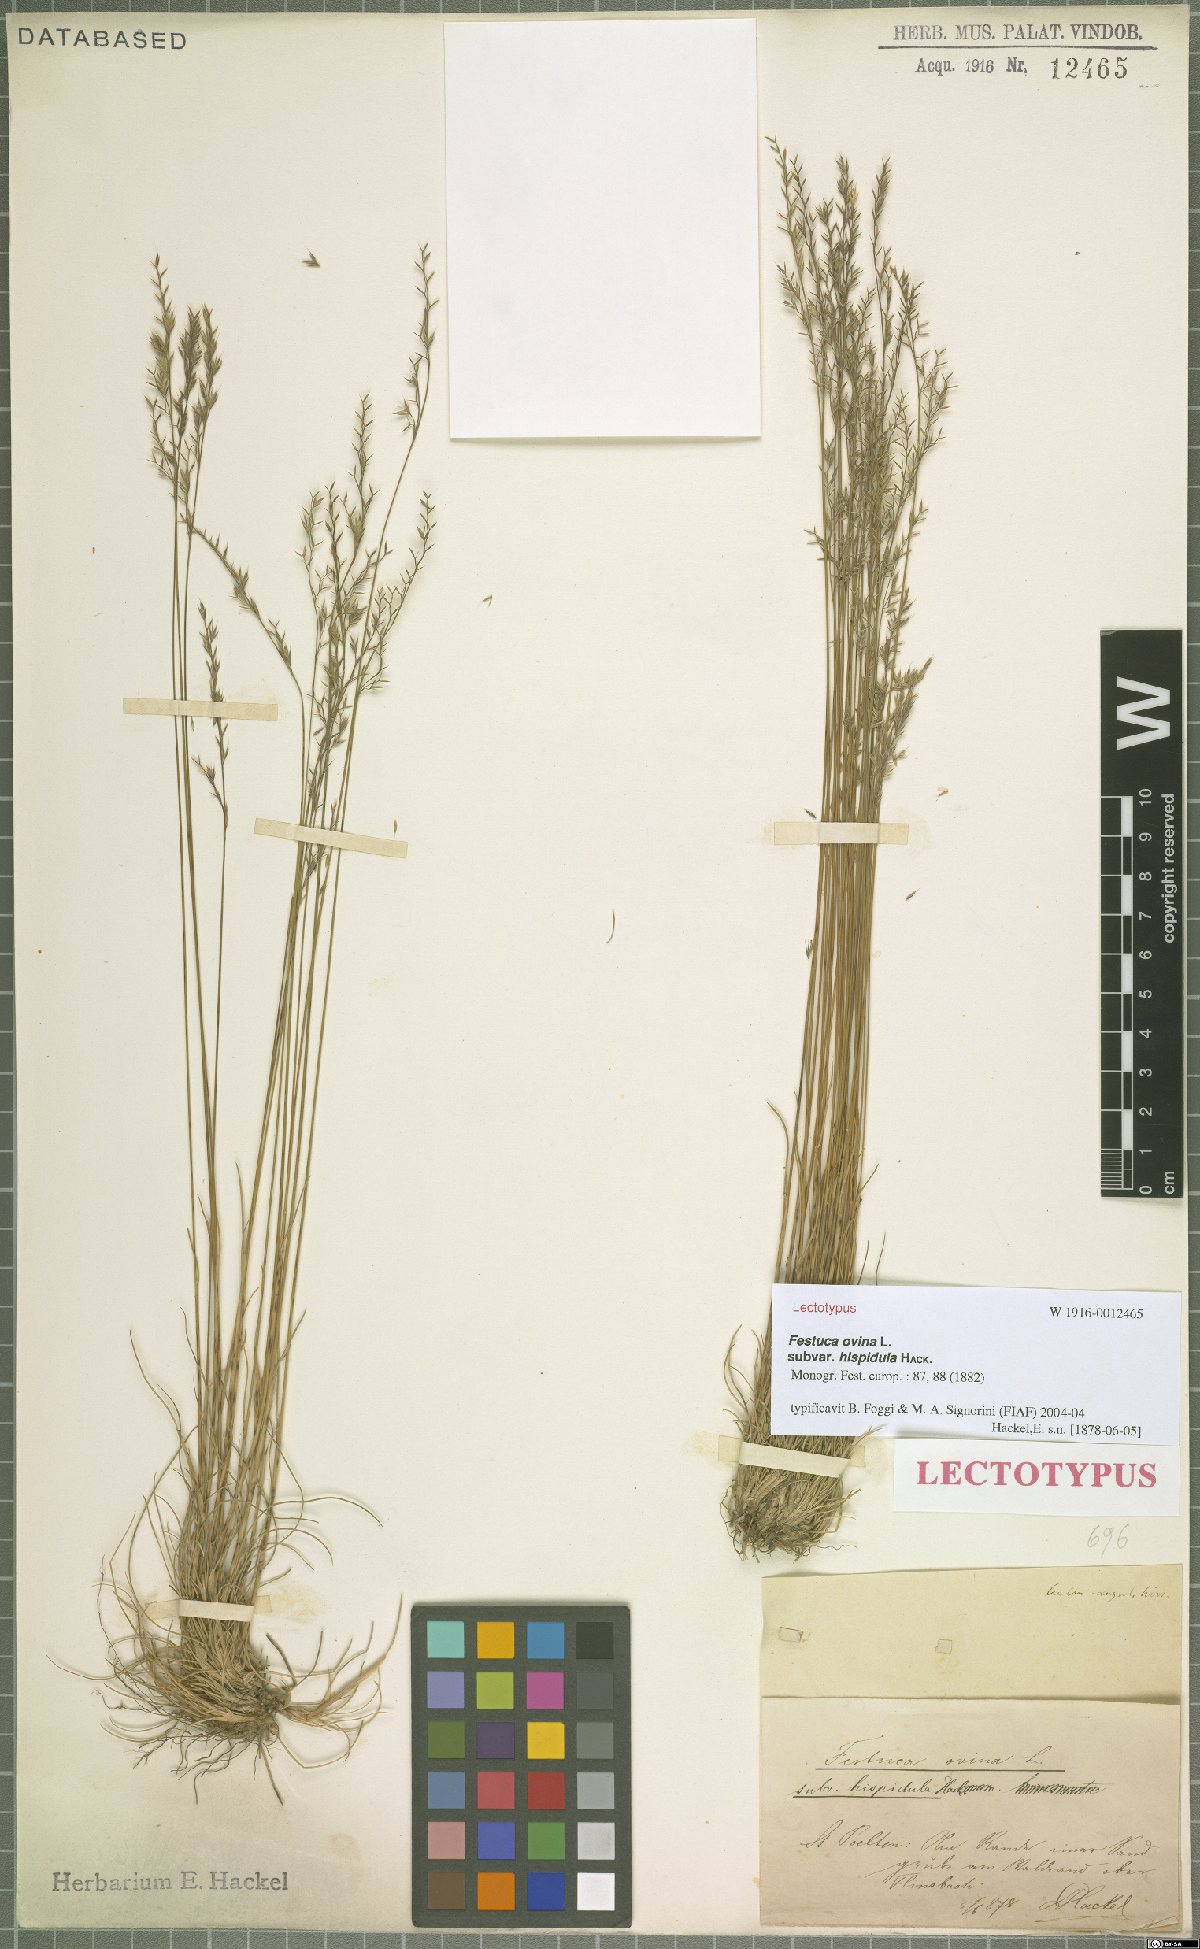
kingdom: Plantae
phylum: Tracheophyta
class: Liliopsida
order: Poales
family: Poaceae
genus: Festuca
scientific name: Festuca
